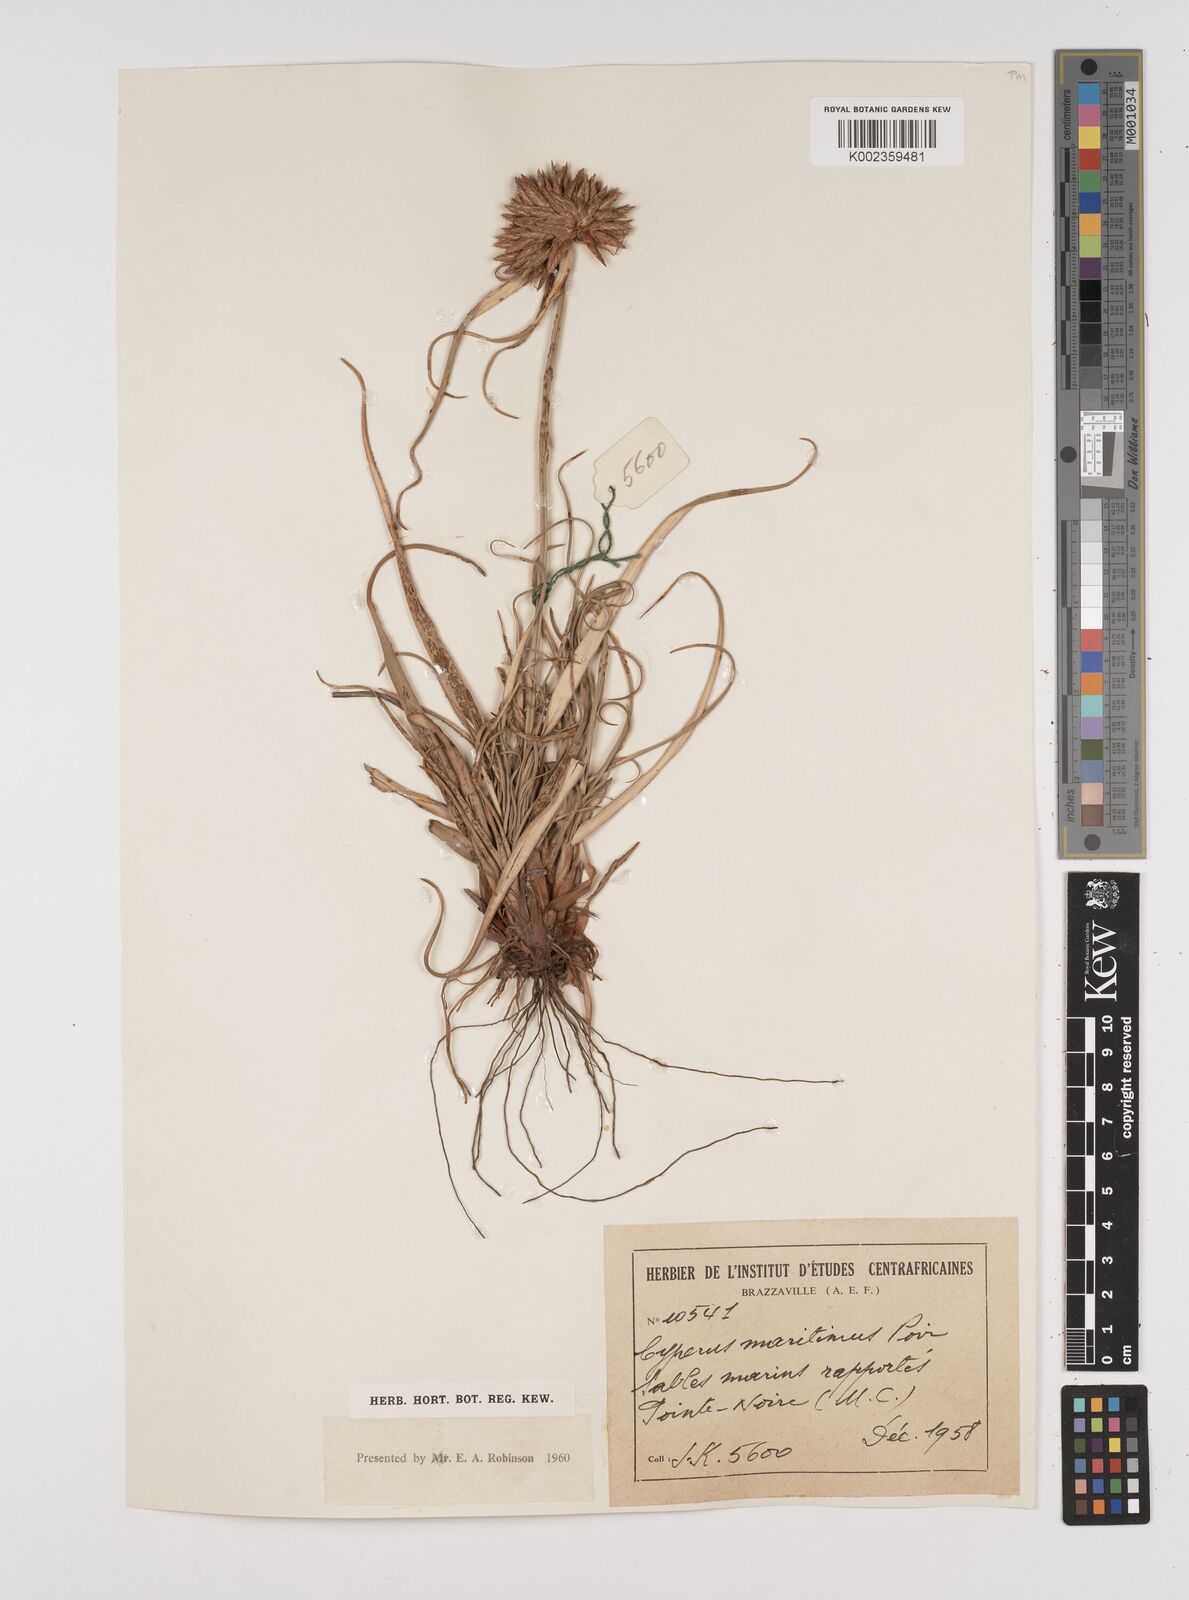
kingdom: Plantae
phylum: Tracheophyta
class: Liliopsida
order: Poales
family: Cyperaceae
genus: Cyperus
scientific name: Cyperus crassipes
